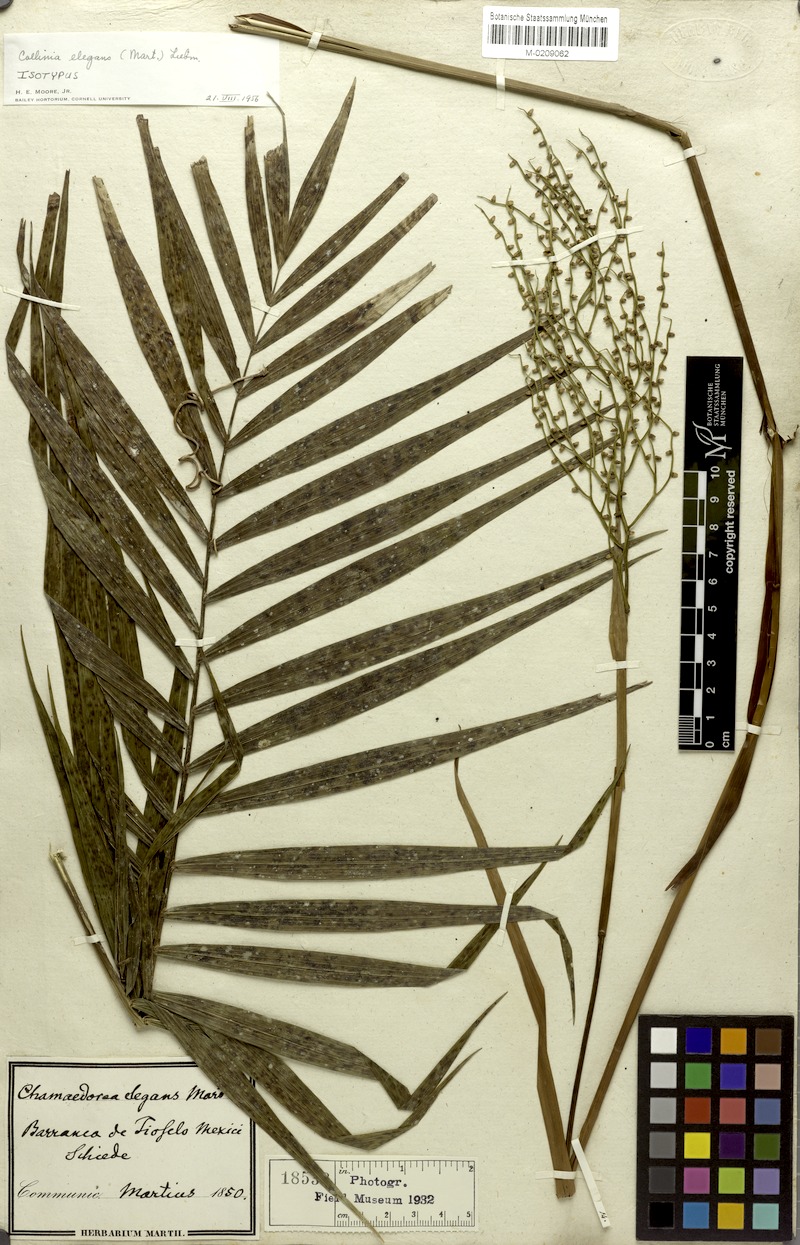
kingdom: Plantae
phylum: Tracheophyta
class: Liliopsida
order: Arecales
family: Arecaceae
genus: Chamaedorea
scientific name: Chamaedorea elegans
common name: Good-luck palm
